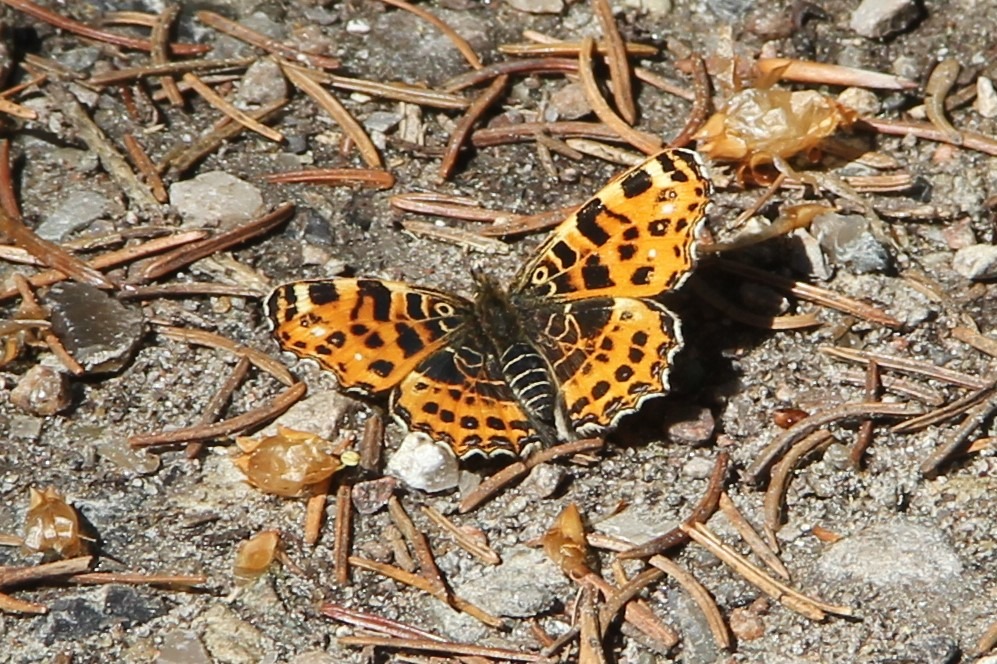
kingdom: Animalia
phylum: Arthropoda
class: Insecta
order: Lepidoptera
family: Nymphalidae
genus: Araschnia
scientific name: Araschnia levana
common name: Nældesommerfugl
